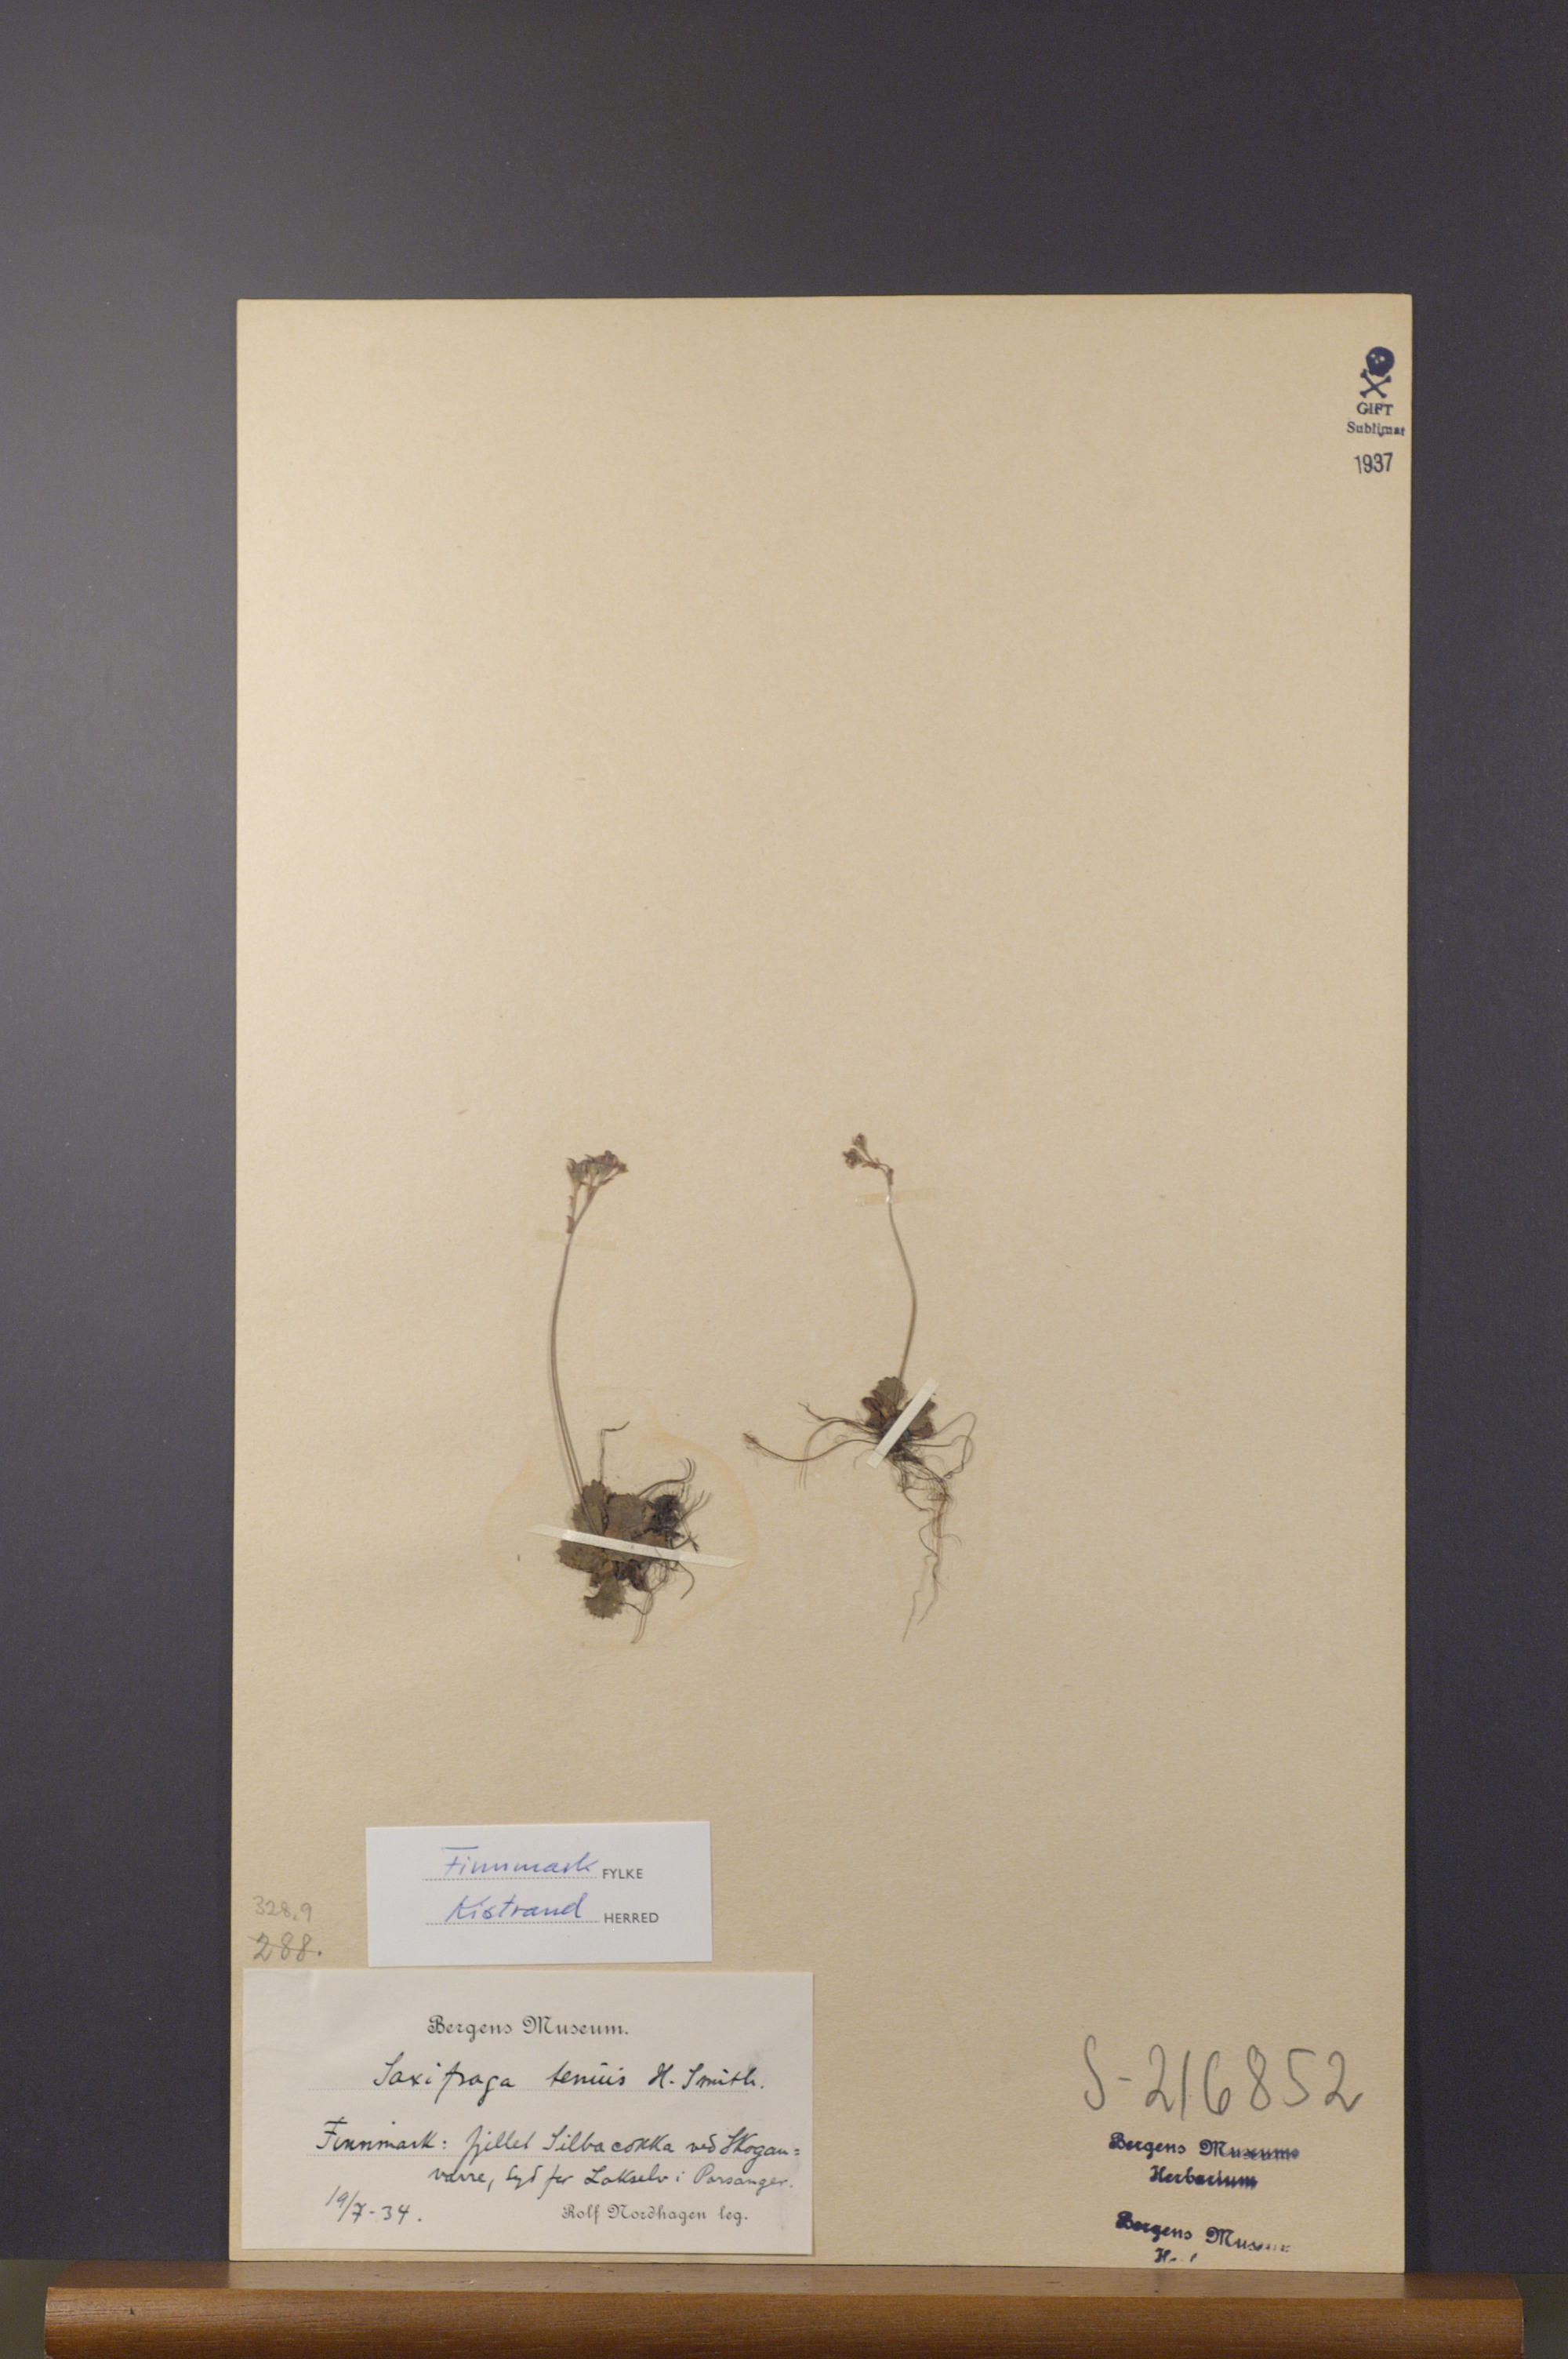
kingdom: Plantae
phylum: Tracheophyta
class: Magnoliopsida
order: Saxifragales
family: Saxifragaceae
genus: Micranthes
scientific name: Micranthes tenuis
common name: Ottertail pass saxifrage
